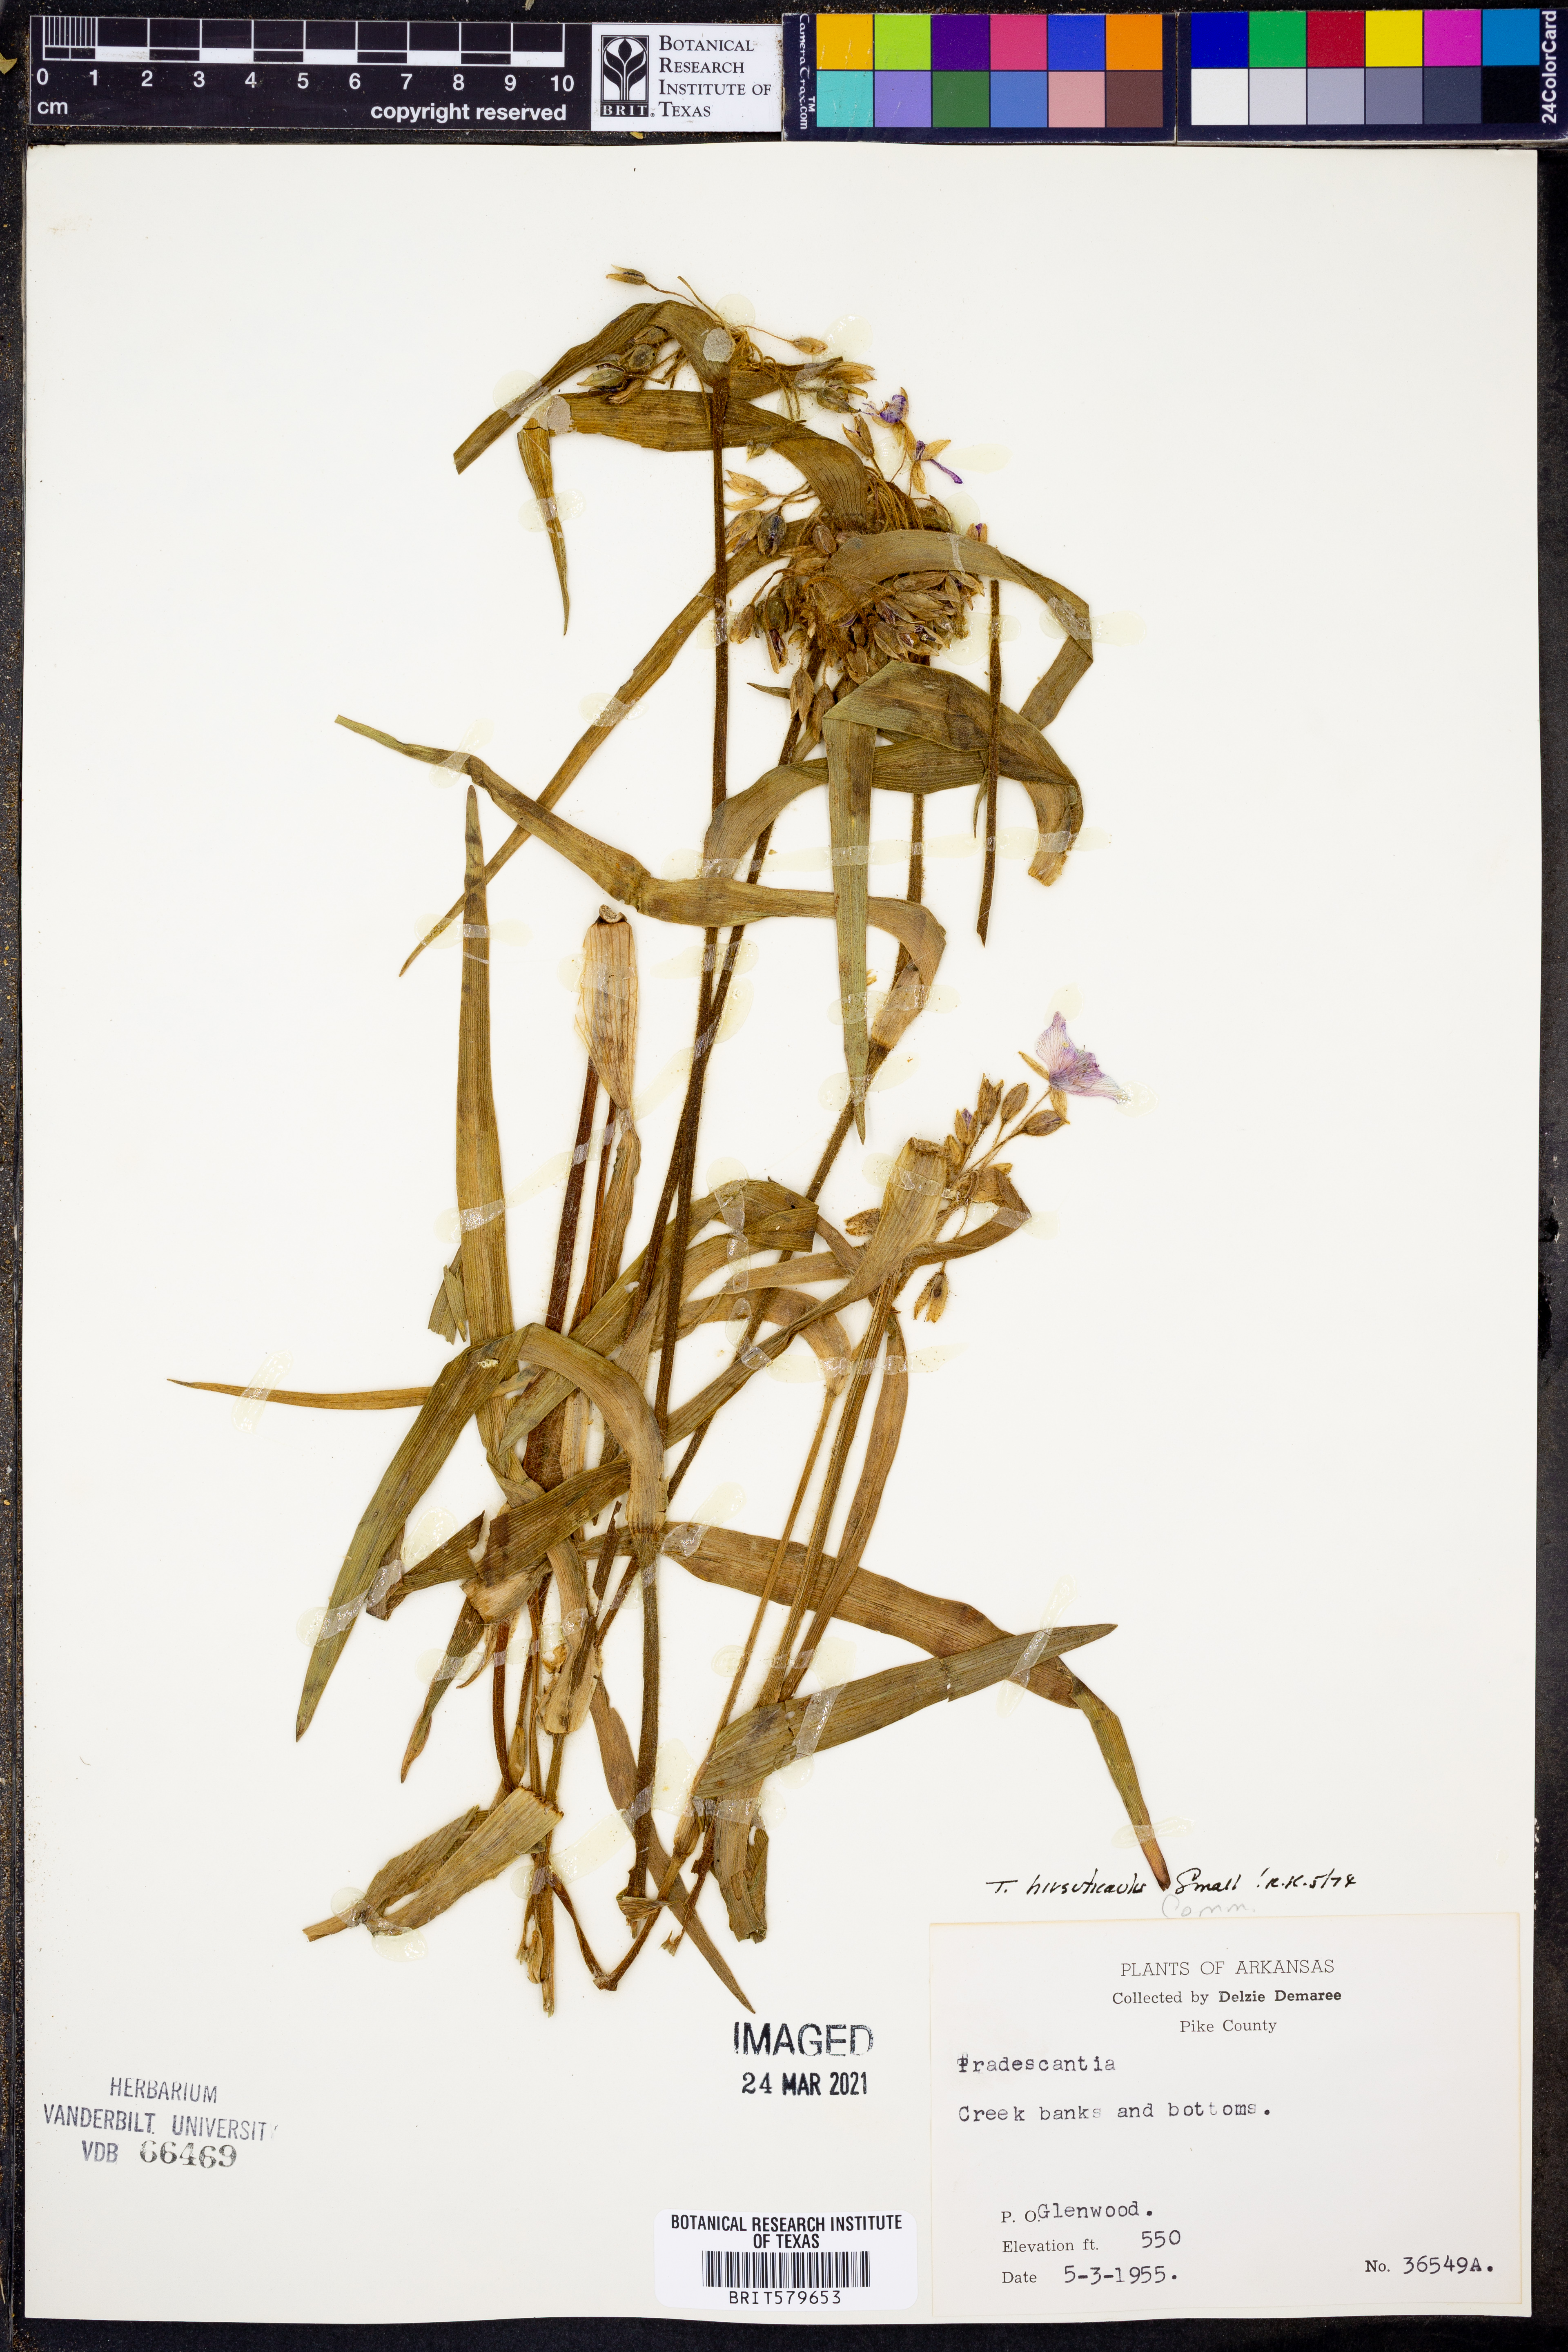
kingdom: Plantae
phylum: Tracheophyta
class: Liliopsida
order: Commelinales
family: Commelinaceae
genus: Tradescantia
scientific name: Tradescantia hirsuticaulis
